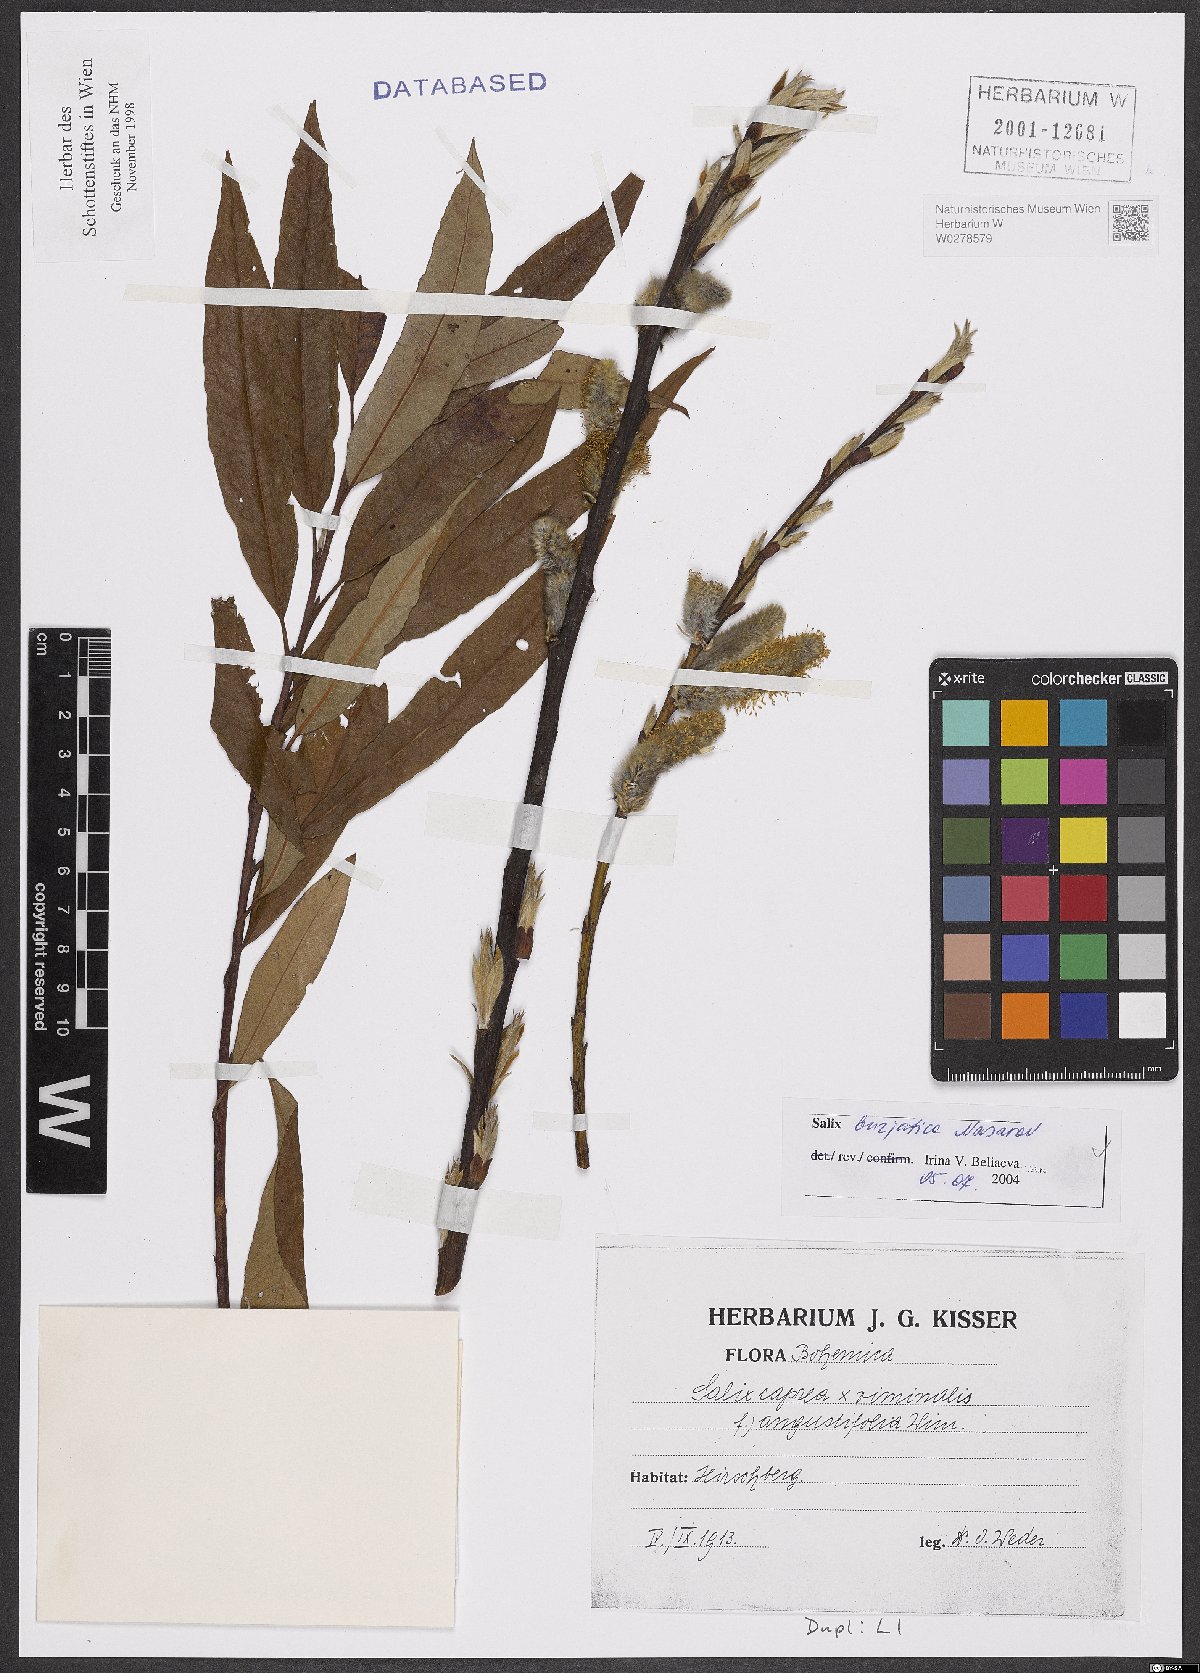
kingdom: Plantae
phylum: Tracheophyta
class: Magnoliopsida
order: Malpighiales
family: Salicaceae
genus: Salix
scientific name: Salix gmelinii
